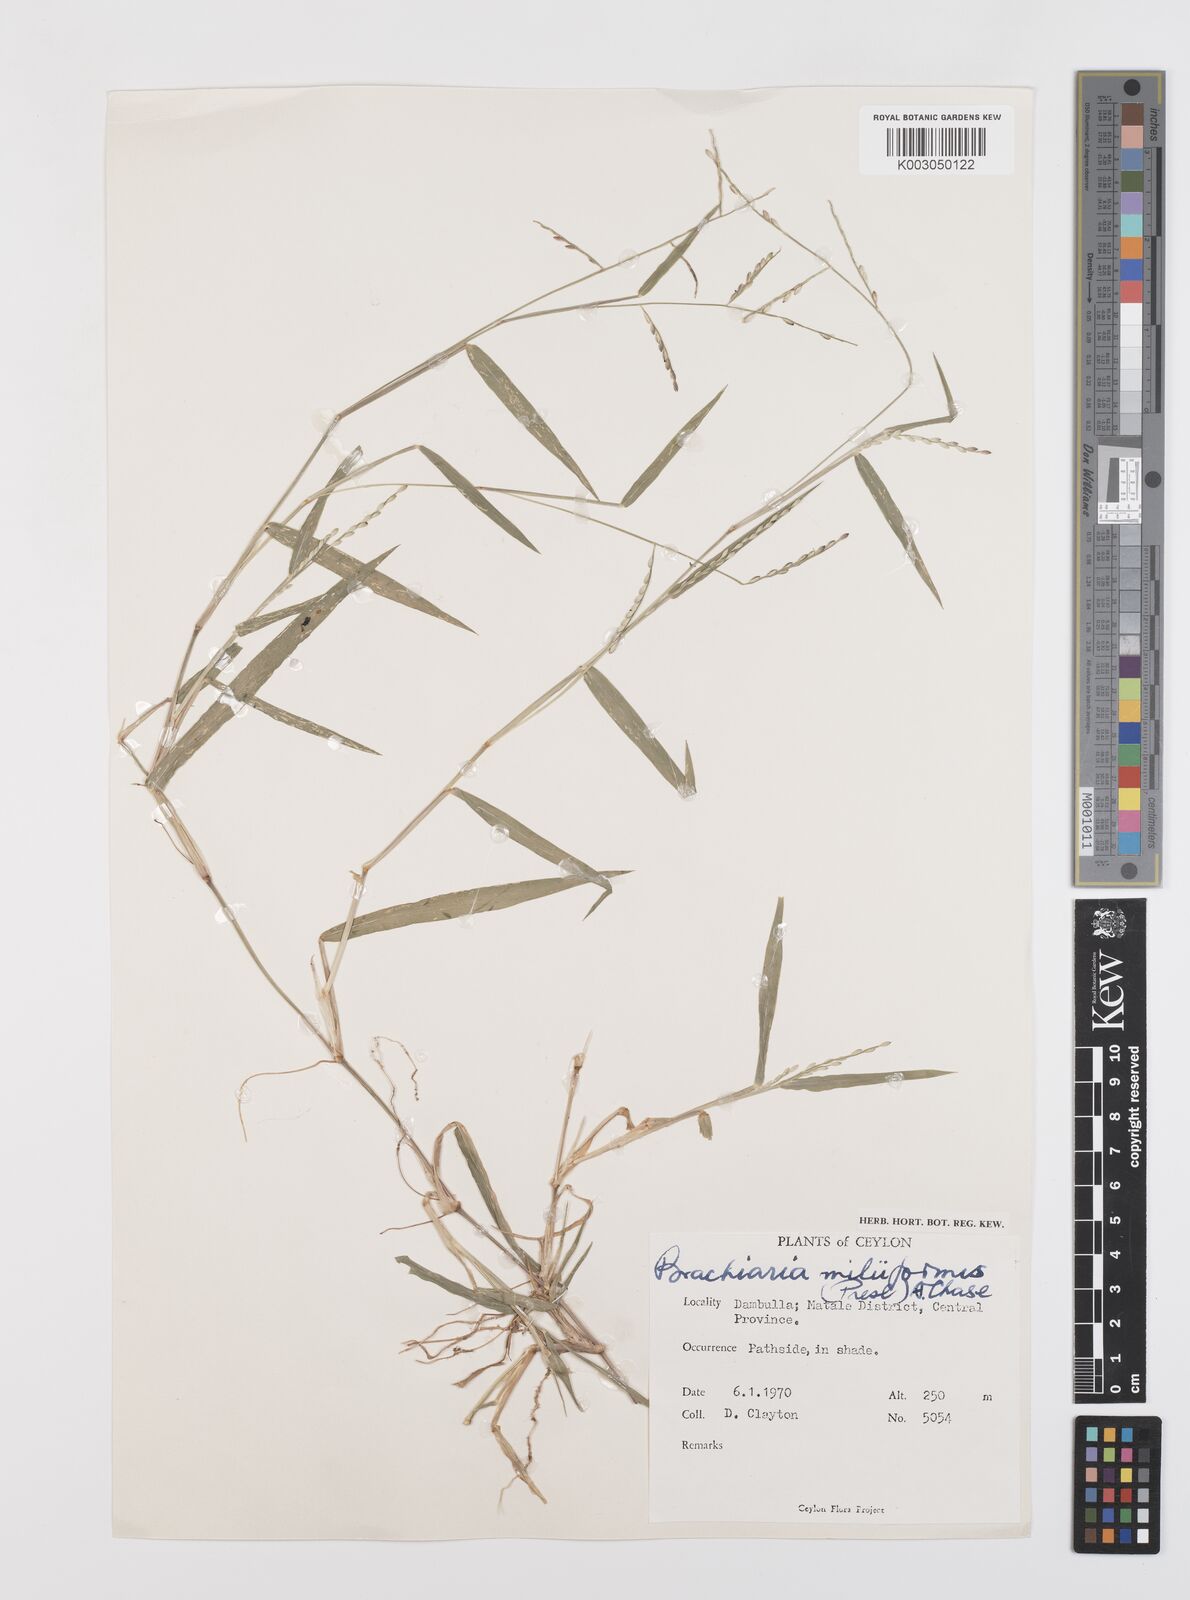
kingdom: Plantae
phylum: Tracheophyta
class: Liliopsida
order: Poales
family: Poaceae
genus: Urochloa
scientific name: Urochloa subquadripara
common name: Armgrass millet
